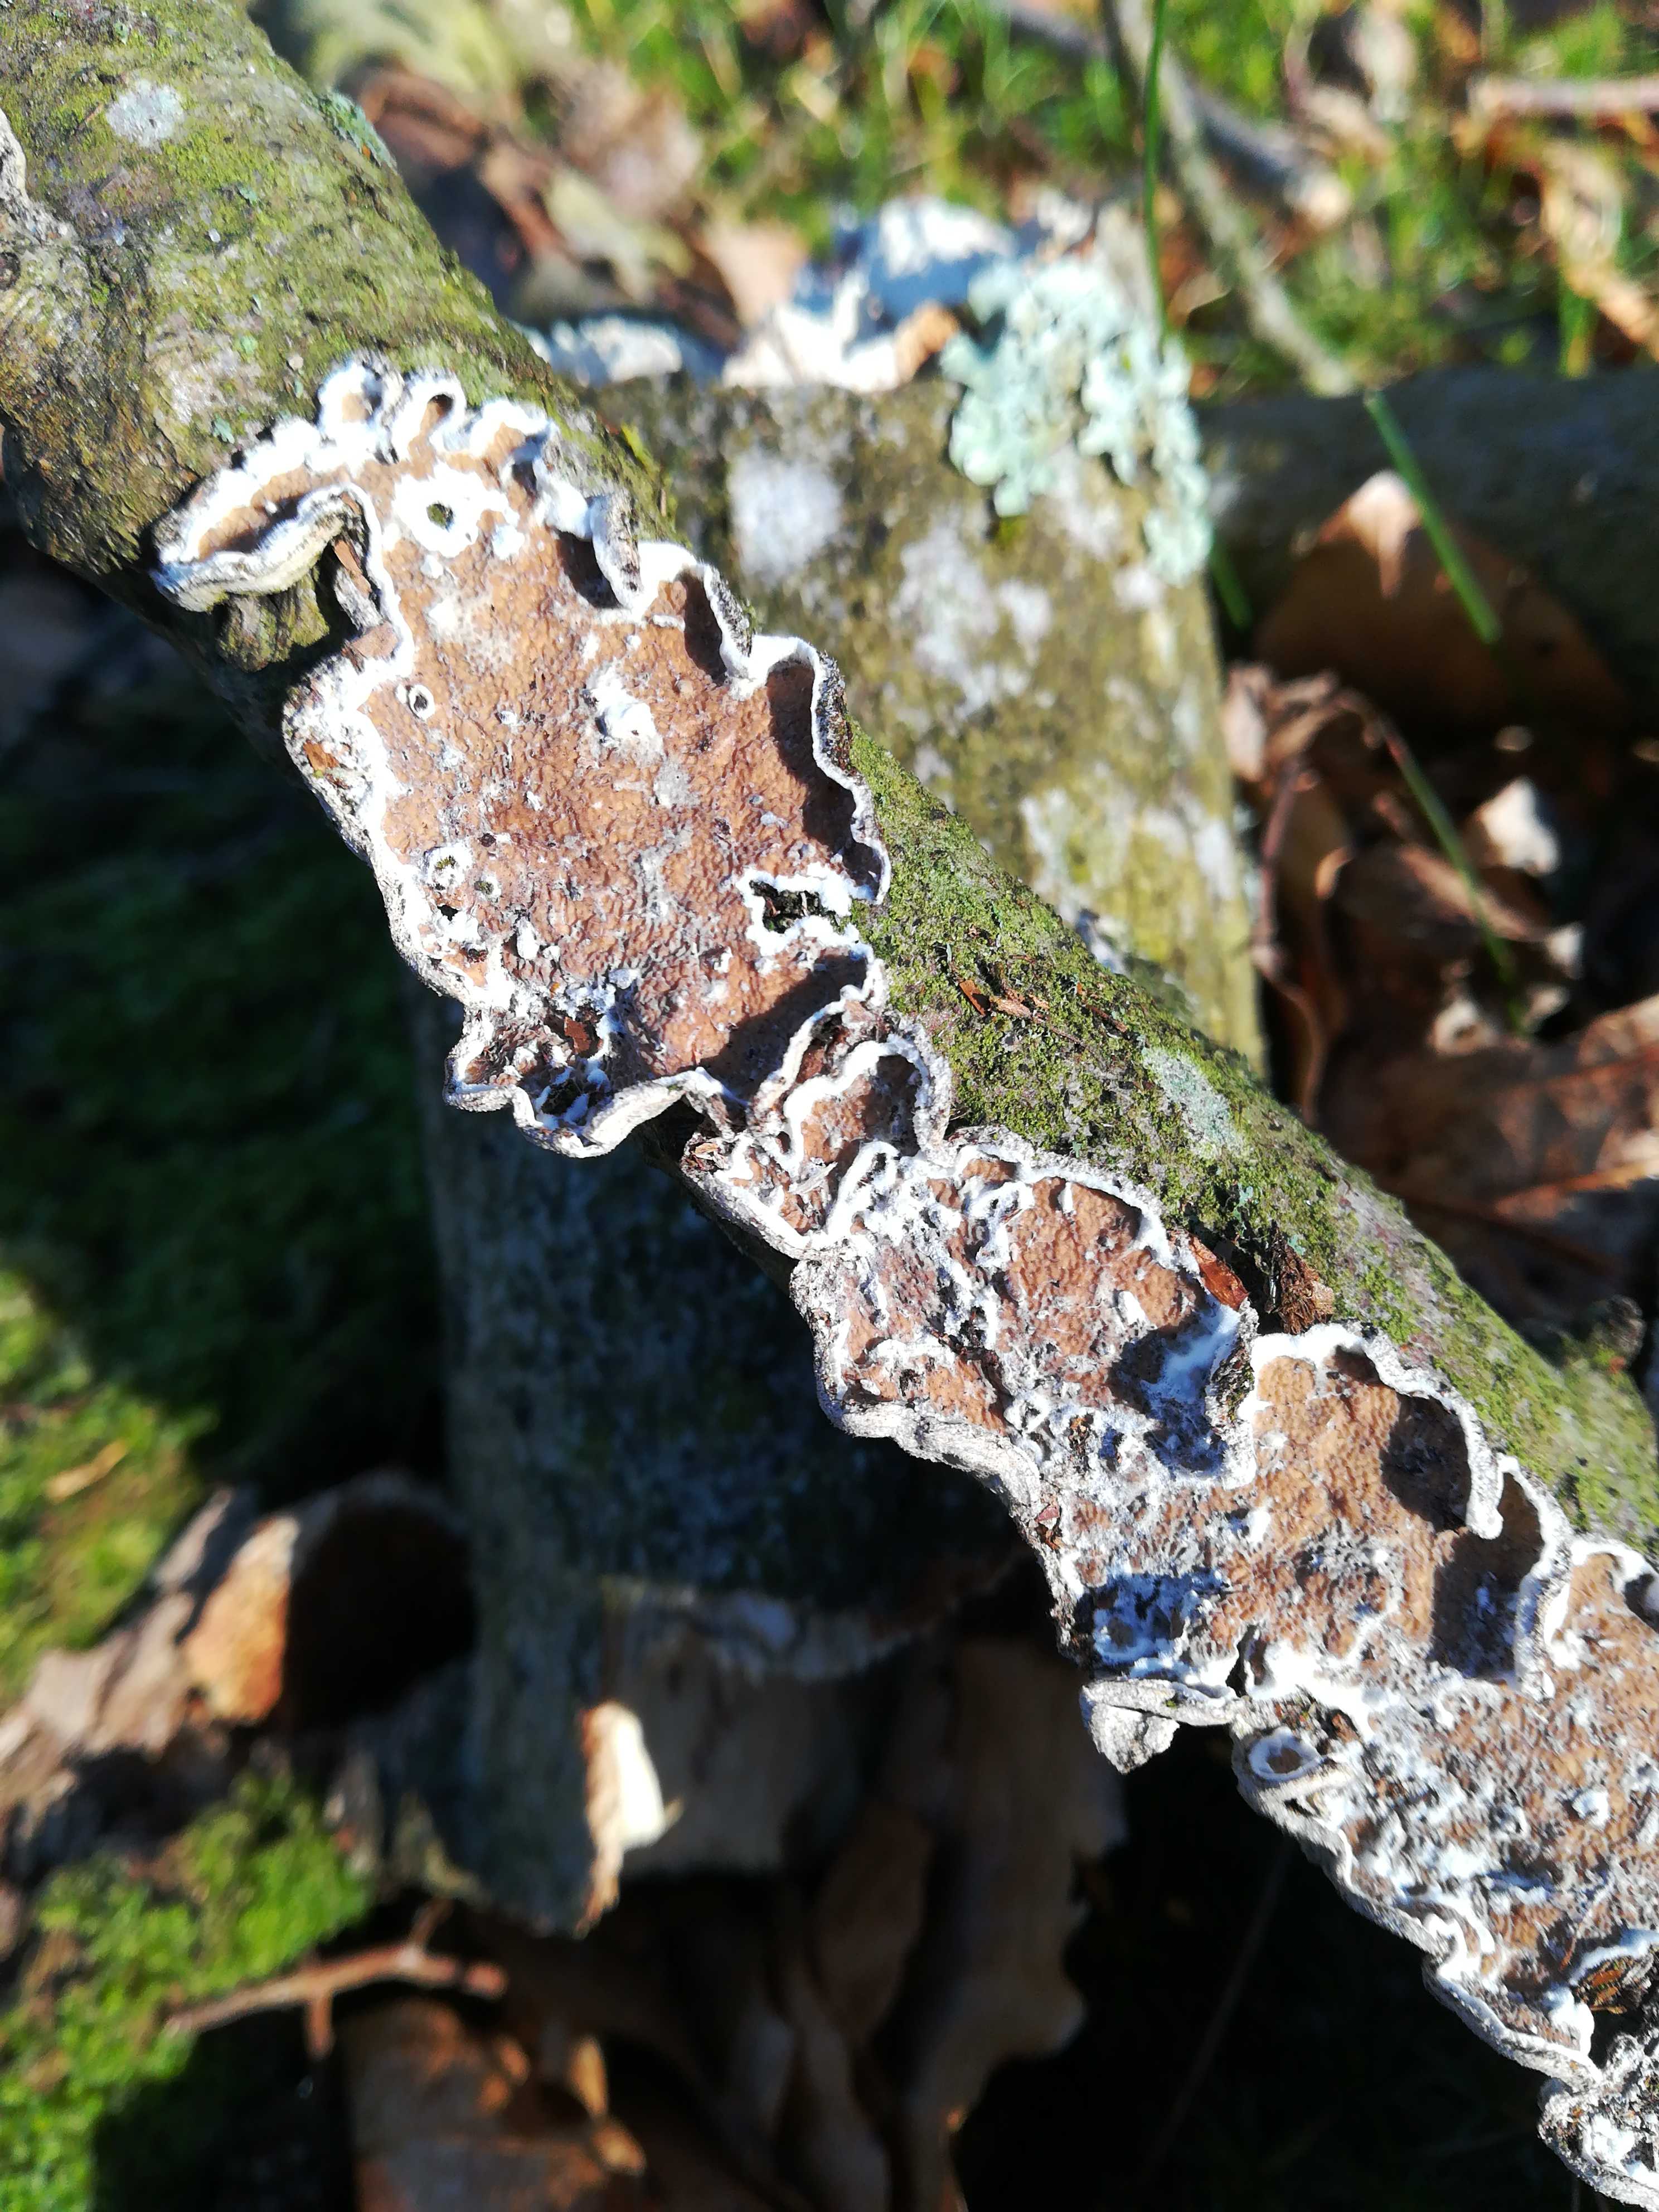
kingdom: Fungi
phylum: Basidiomycota
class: Agaricomycetes
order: Polyporales
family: Irpicaceae
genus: Byssomerulius
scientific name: Byssomerulius corium
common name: læder-åresvamp
